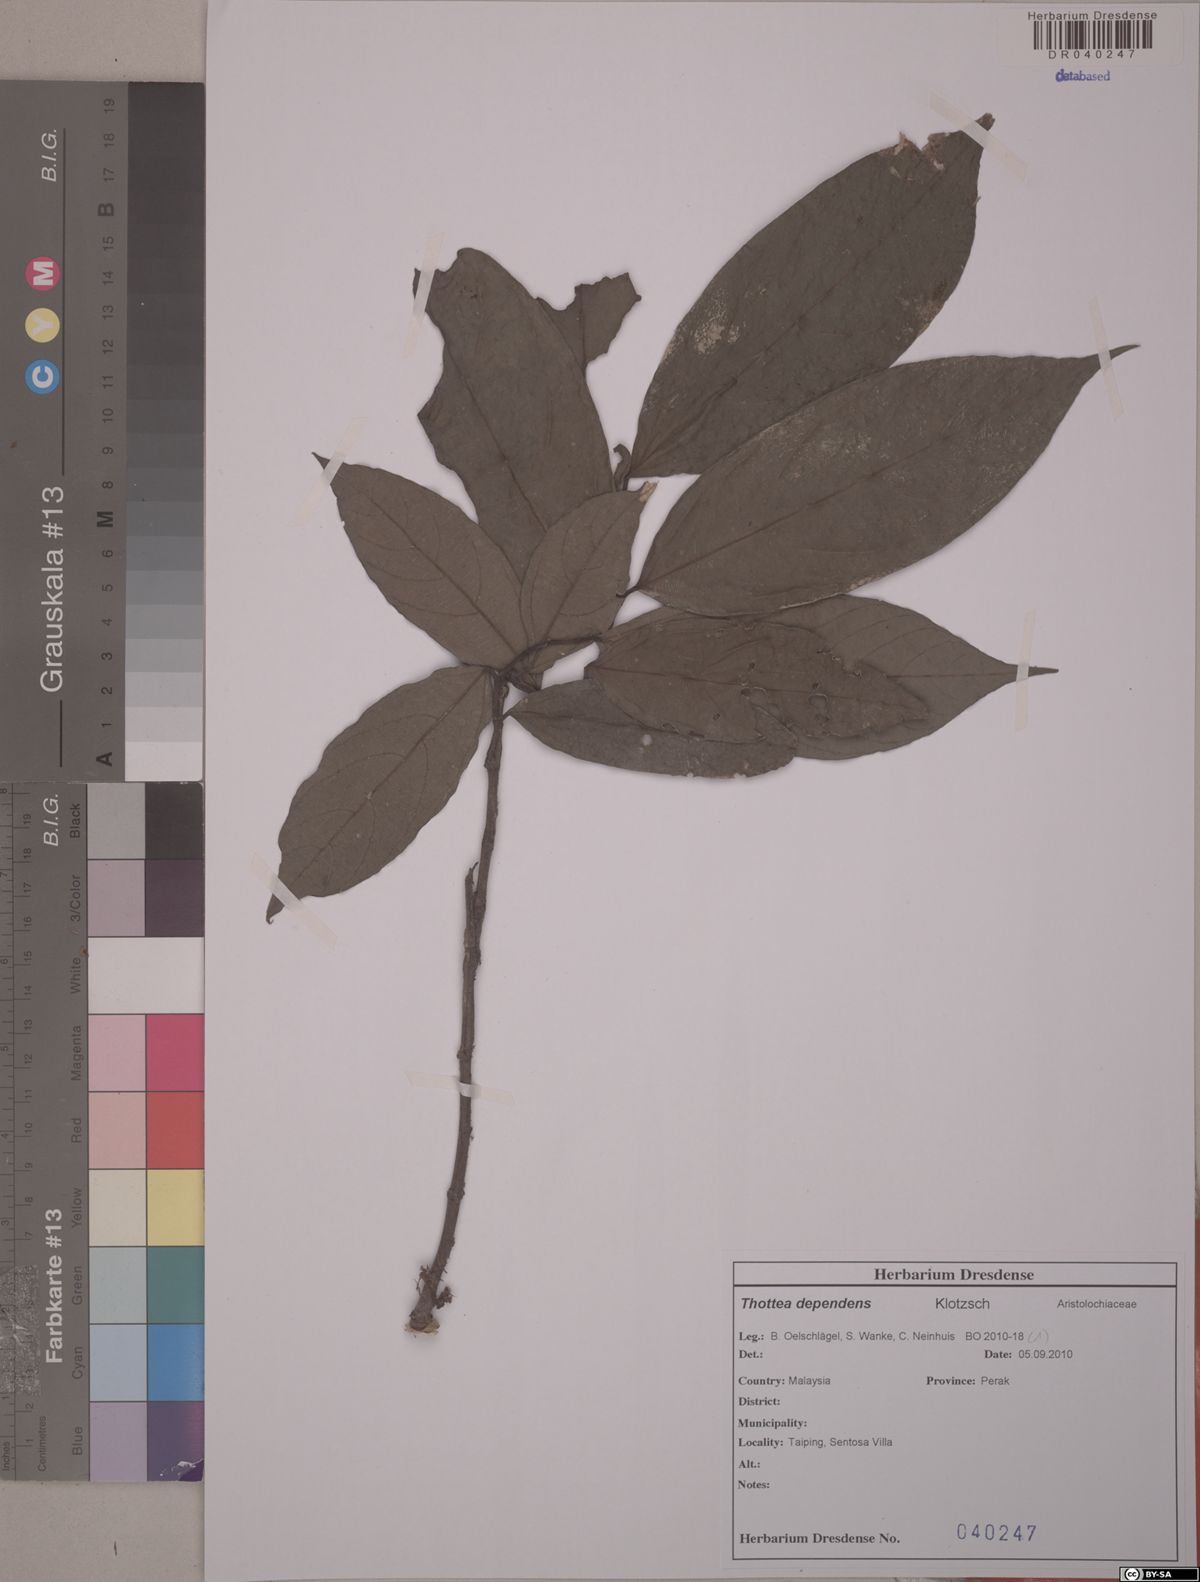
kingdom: Plantae
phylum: Tracheophyta
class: Magnoliopsida
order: Piperales
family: Aristolochiaceae
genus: Thottea
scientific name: Thottea dependens
